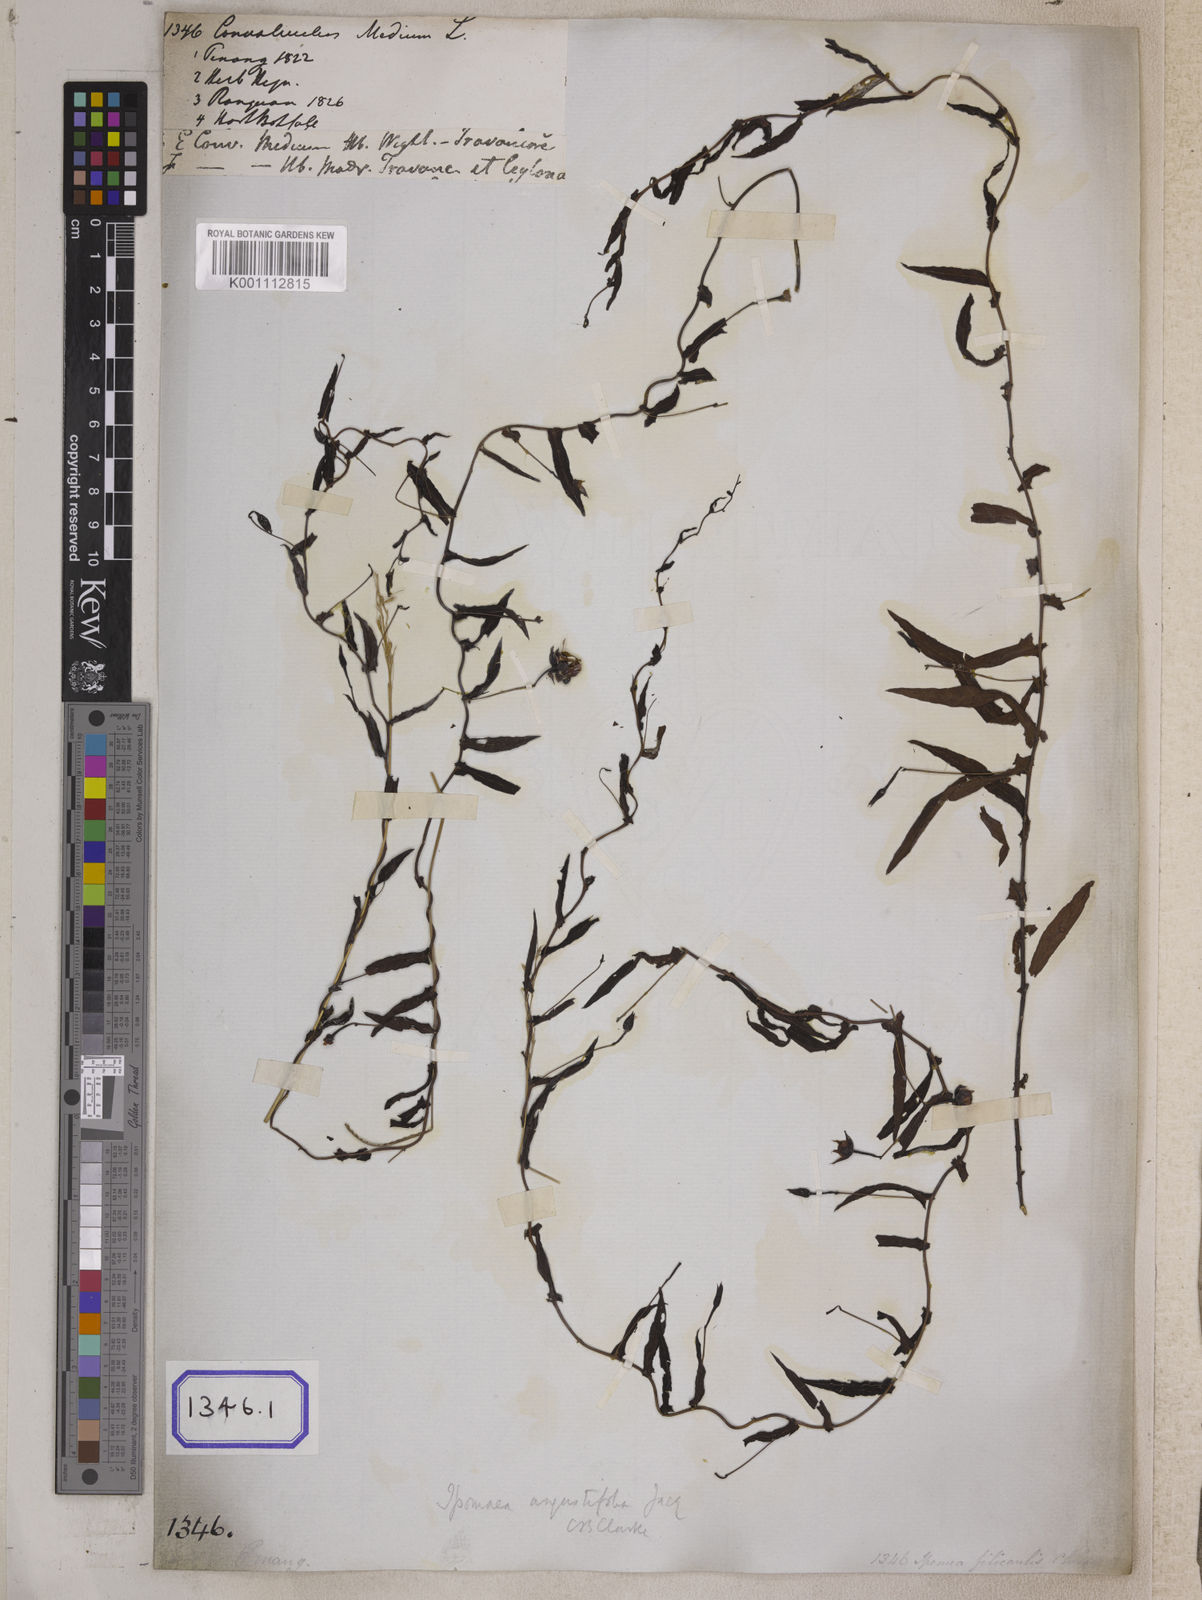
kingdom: Plantae
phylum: Tracheophyta
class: Magnoliopsida
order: Solanales
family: Convolvulaceae
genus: Xenostegia
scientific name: Xenostegia medium
